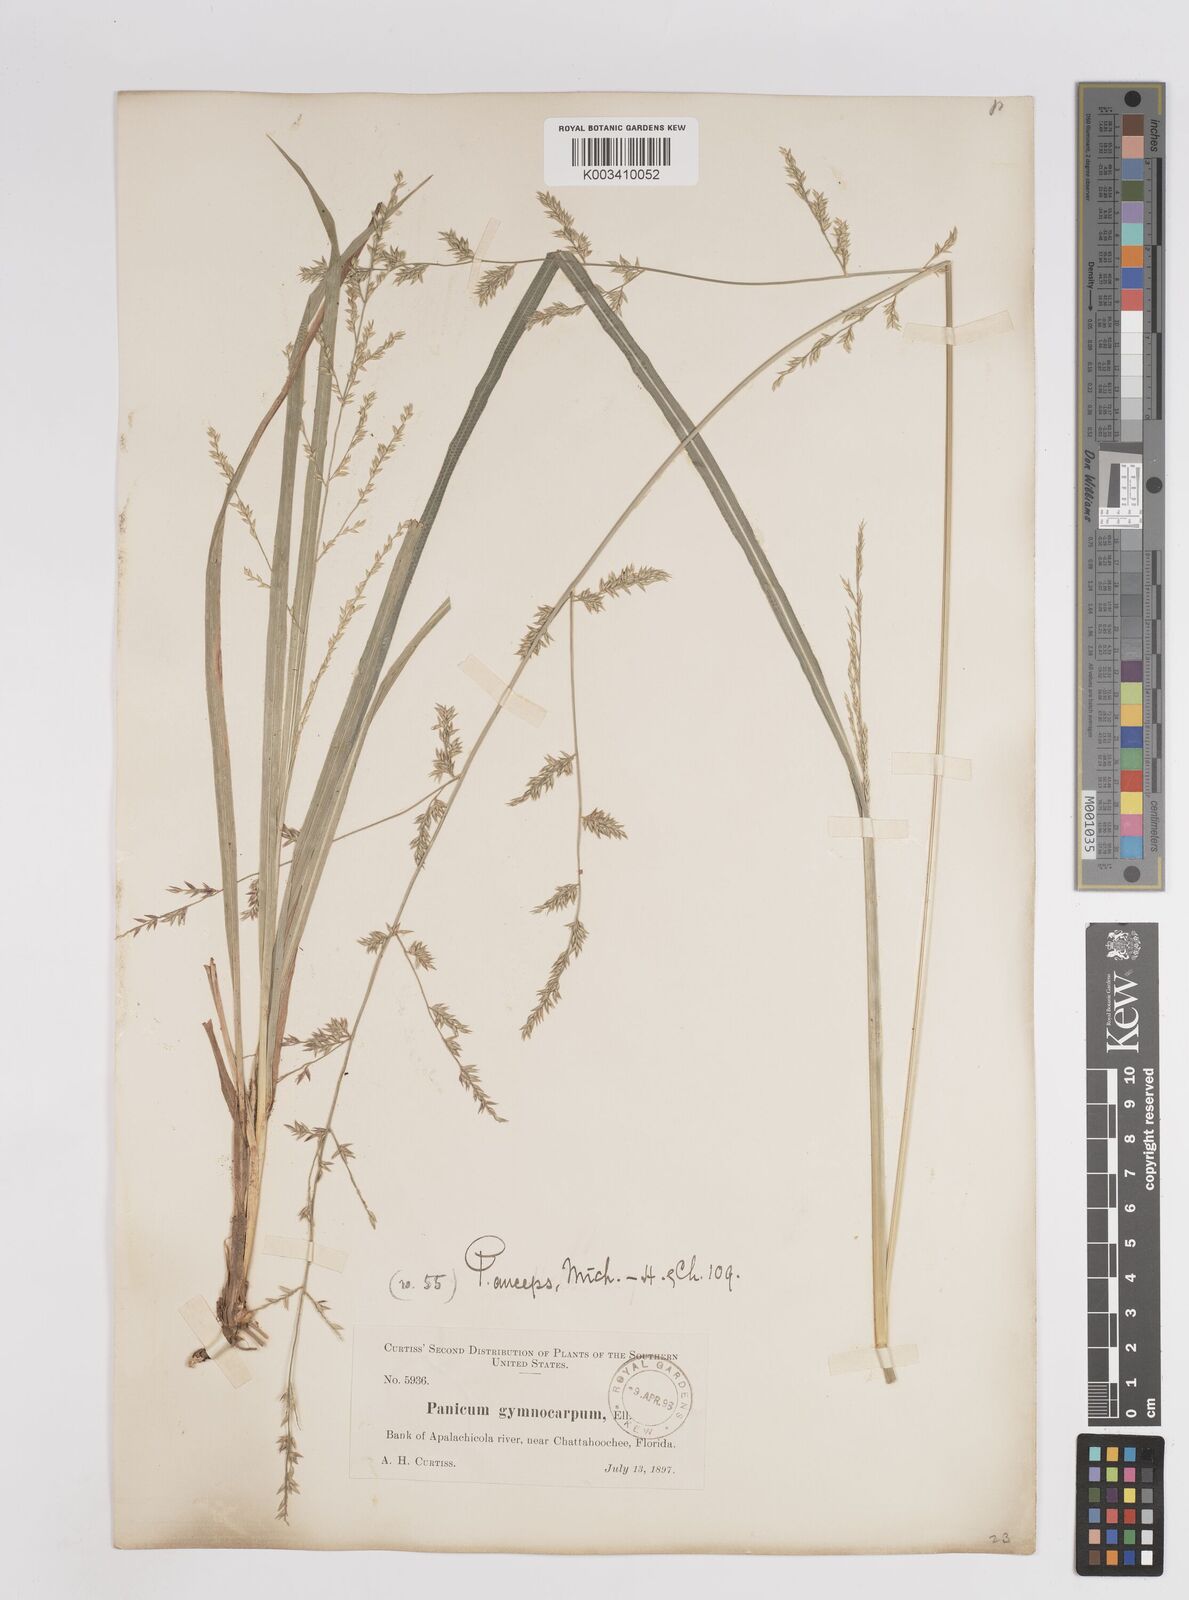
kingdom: Plantae
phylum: Tracheophyta
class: Liliopsida
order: Poales
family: Poaceae
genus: Coleataenia
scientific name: Coleataenia anceps
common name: Beaked panic grass
